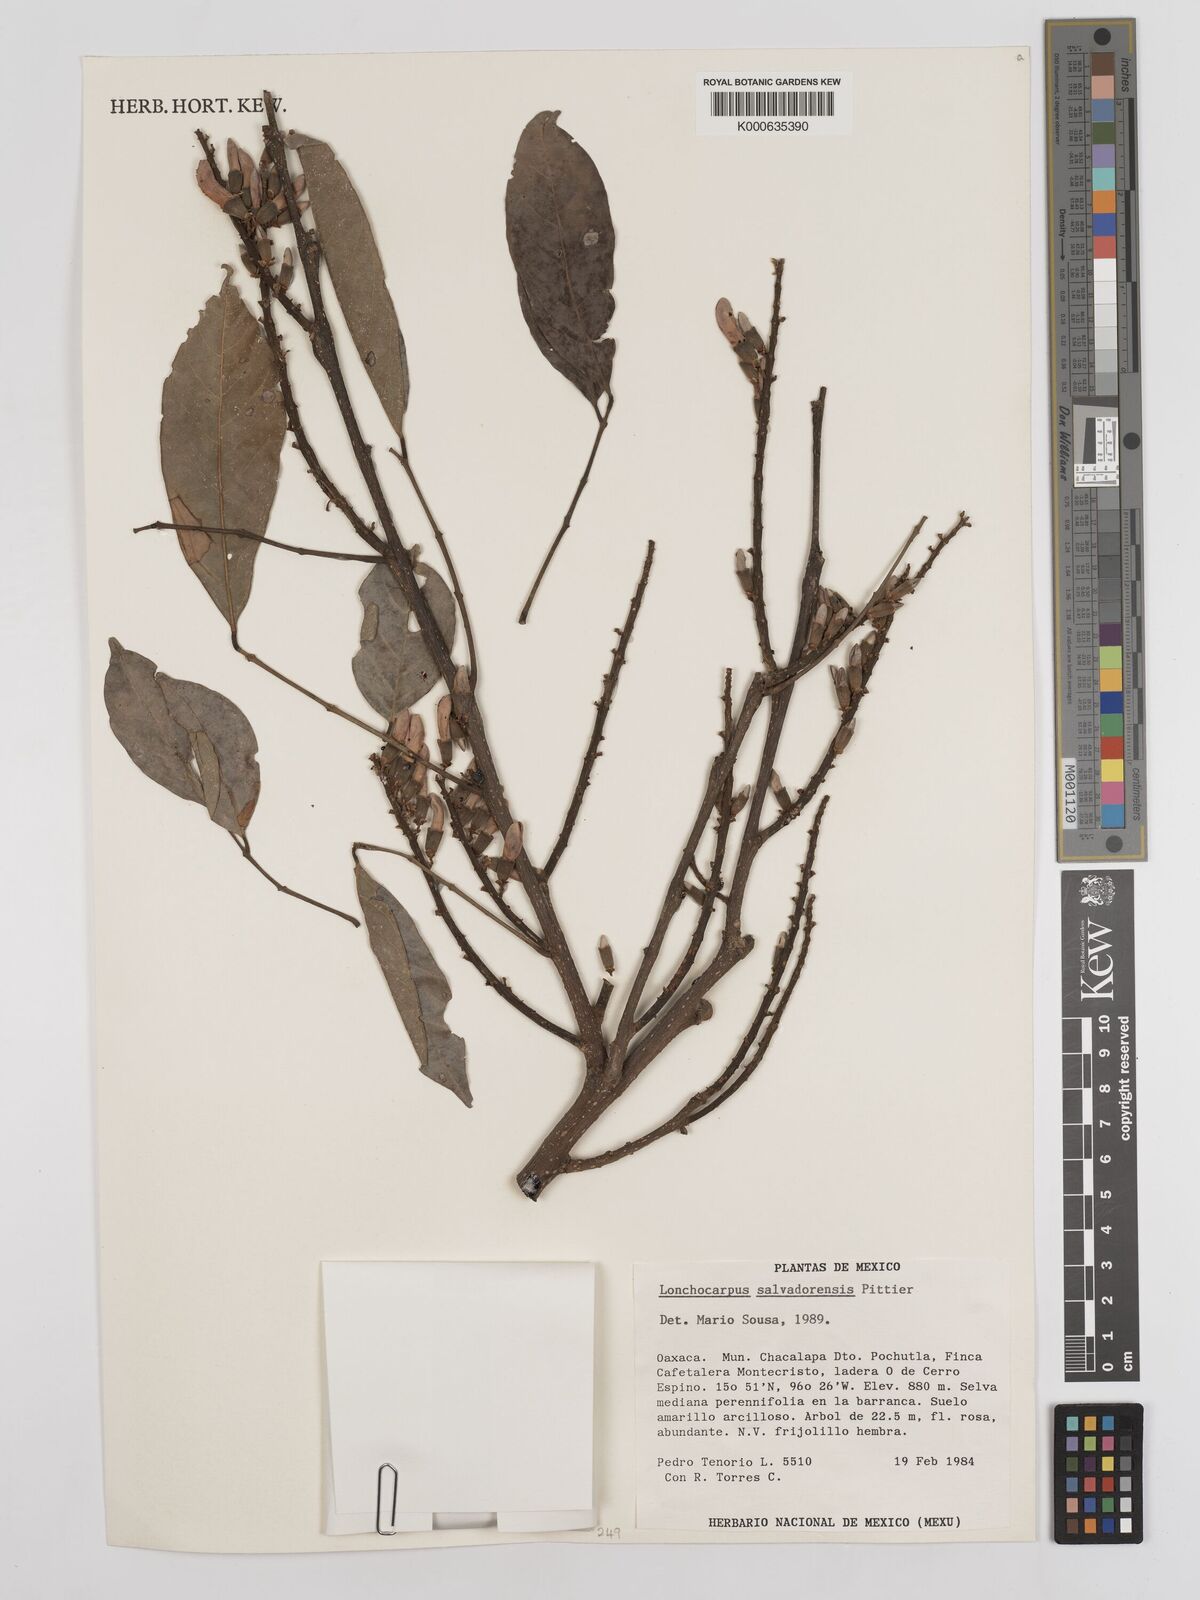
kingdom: Plantae
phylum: Tracheophyta
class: Magnoliopsida
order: Fabales
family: Fabaceae
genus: Lonchocarpus
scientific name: Lonchocarpus salvadorensis
